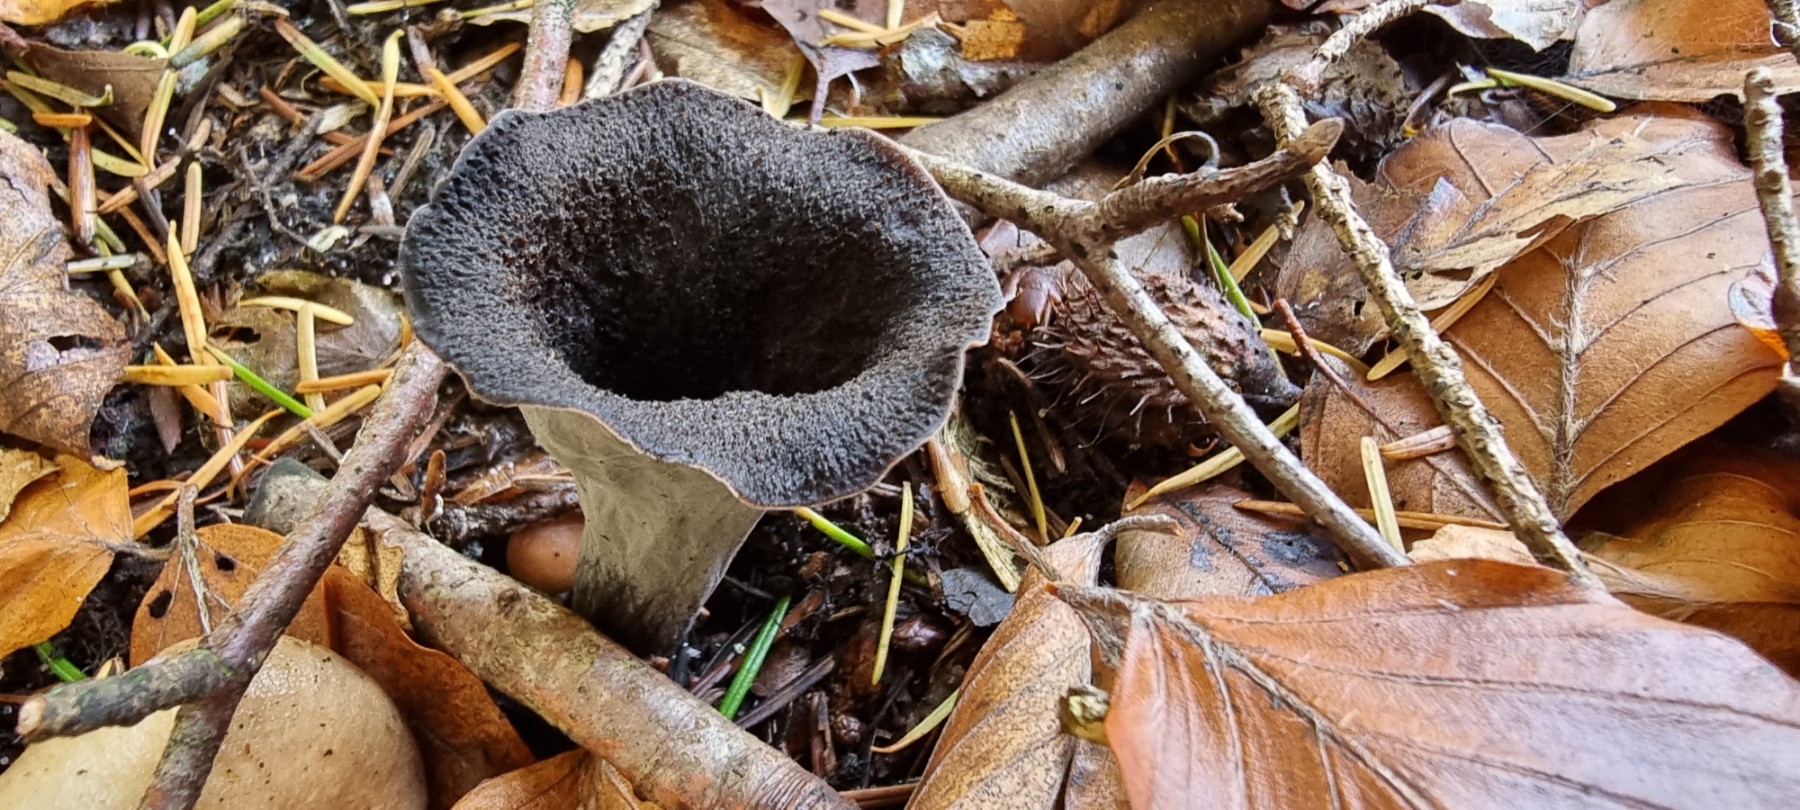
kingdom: Fungi
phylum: Basidiomycota
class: Agaricomycetes
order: Cantharellales
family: Hydnaceae
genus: Craterellus
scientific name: Craterellus cornucopioides
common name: trompetsvamp
